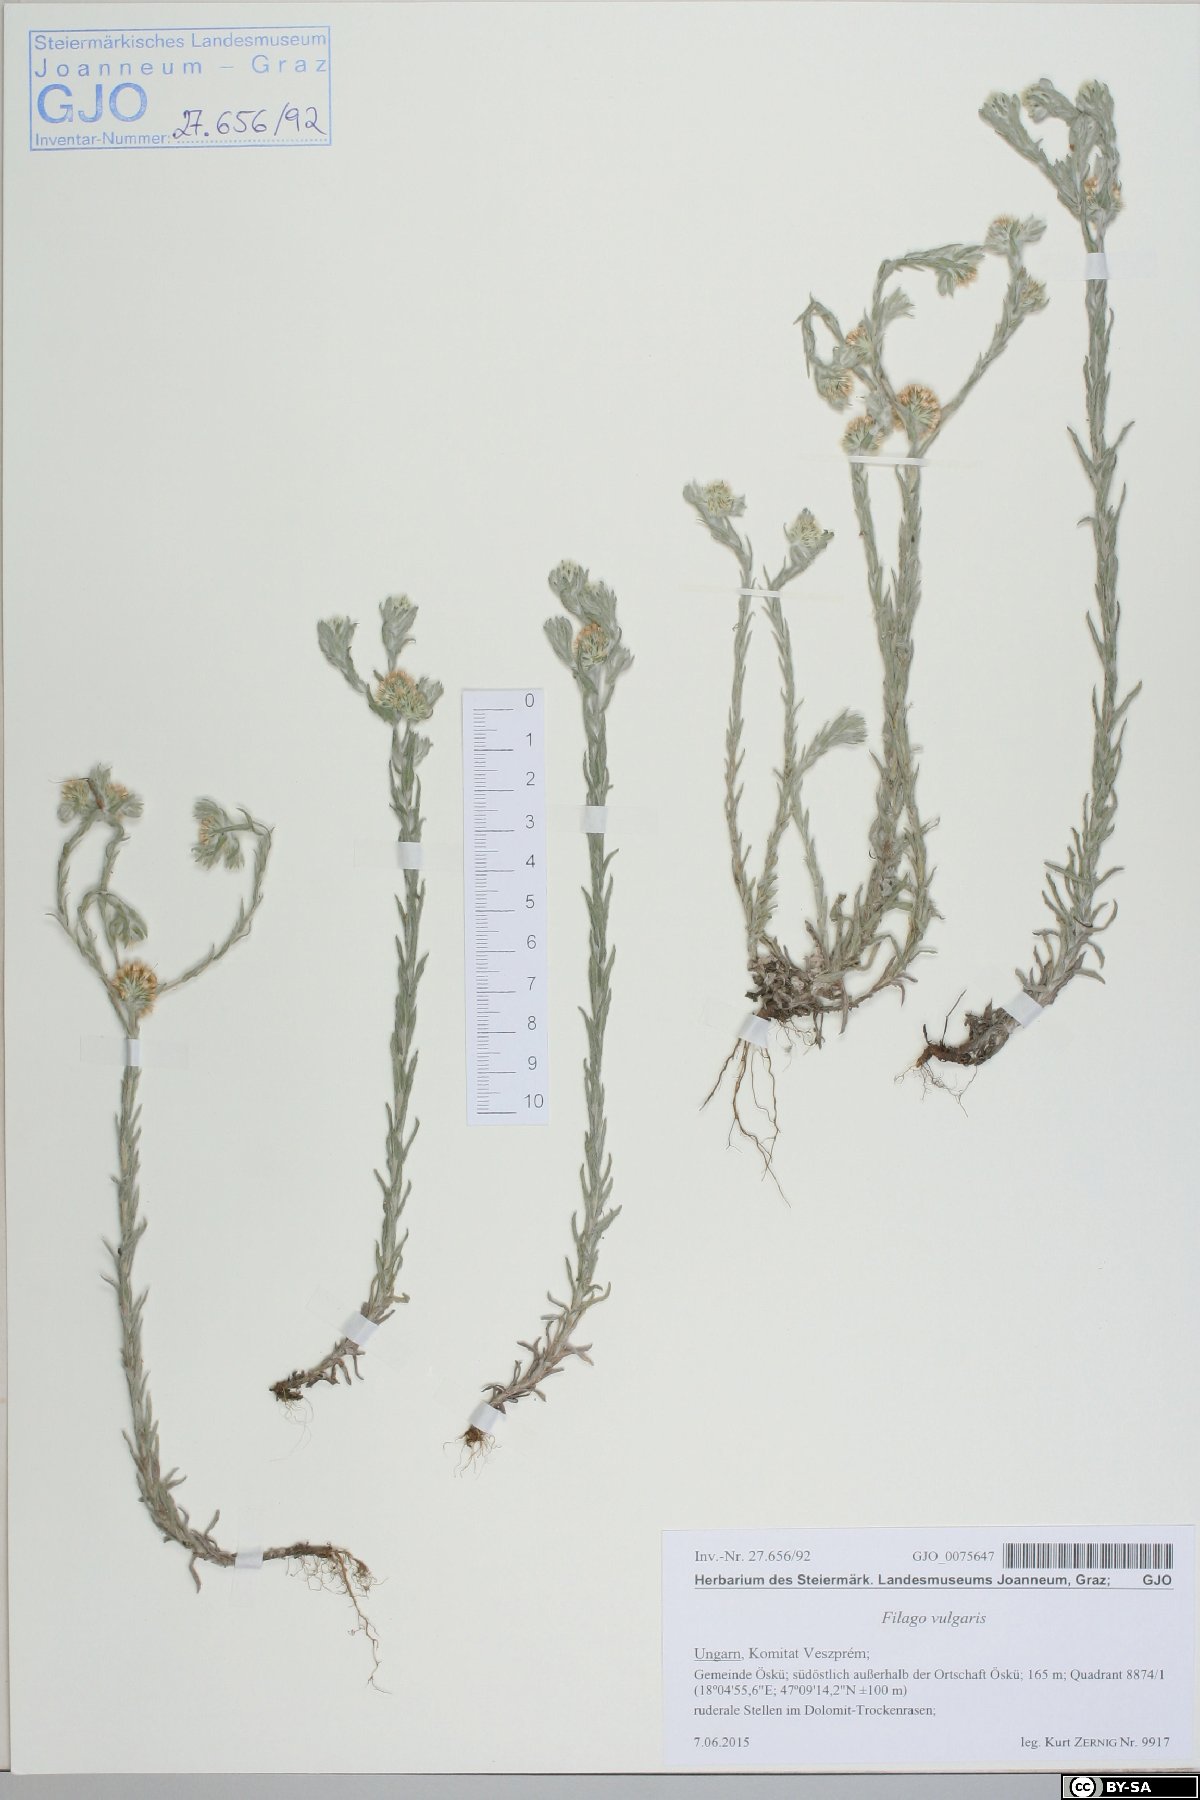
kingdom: Plantae
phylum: Tracheophyta
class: Magnoliopsida
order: Asterales
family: Asteraceae
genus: Filago
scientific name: Filago germanica
